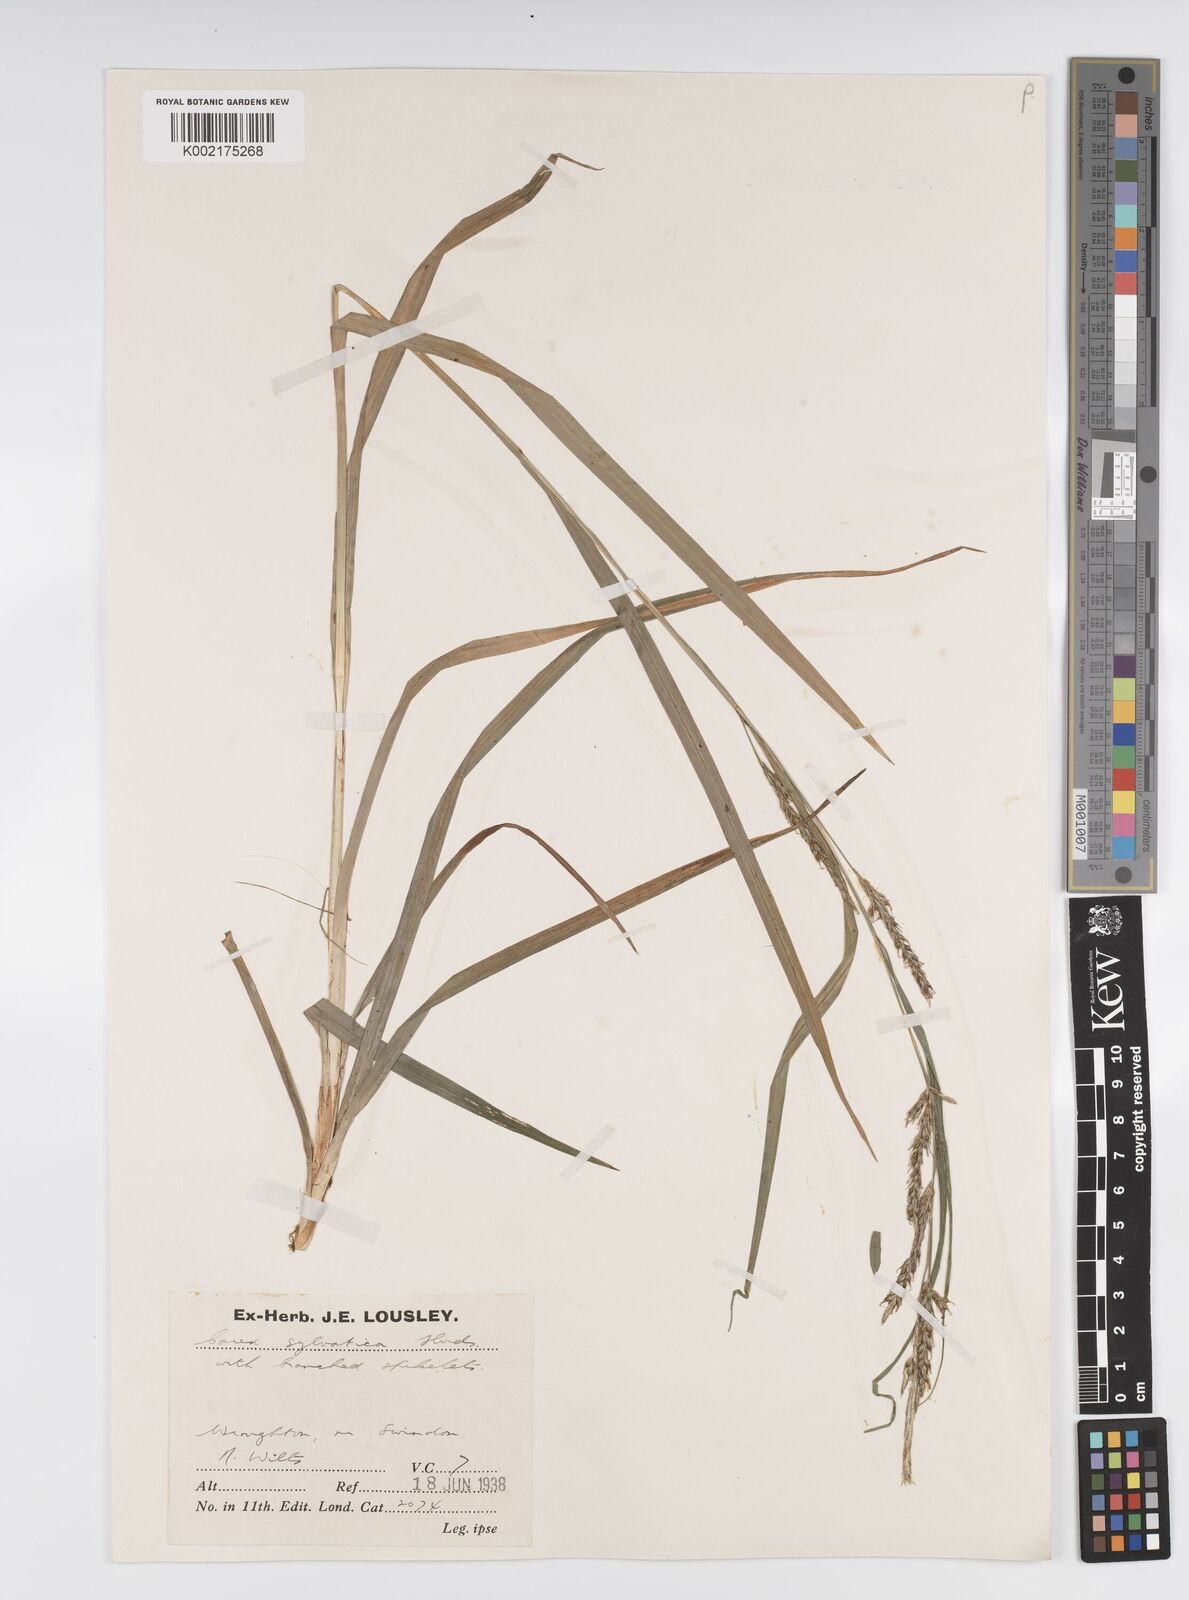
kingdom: Plantae
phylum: Tracheophyta
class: Liliopsida
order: Poales
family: Cyperaceae
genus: Carex
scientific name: Carex sylvatica
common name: Wood-sedge
